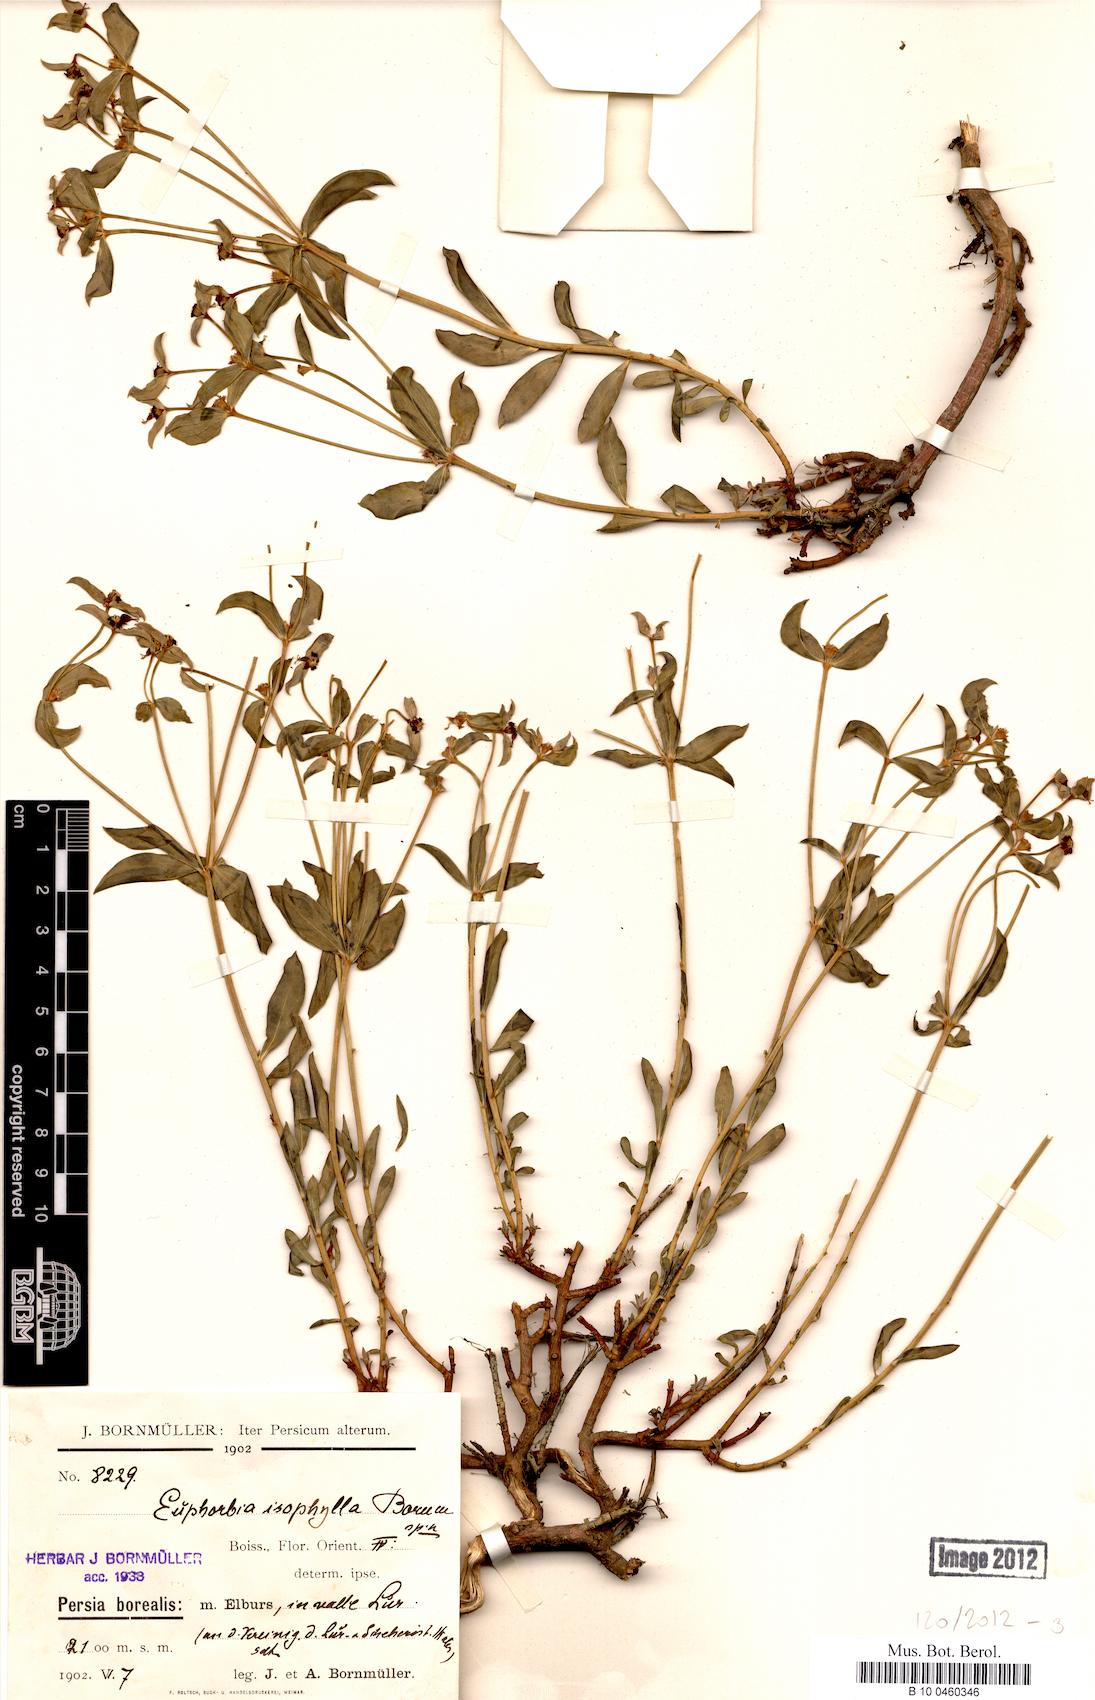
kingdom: Plantae
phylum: Tracheophyta
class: Magnoliopsida
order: Malpighiales
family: Euphorbiaceae
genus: Euphorbia
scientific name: Euphorbia microsciadia
